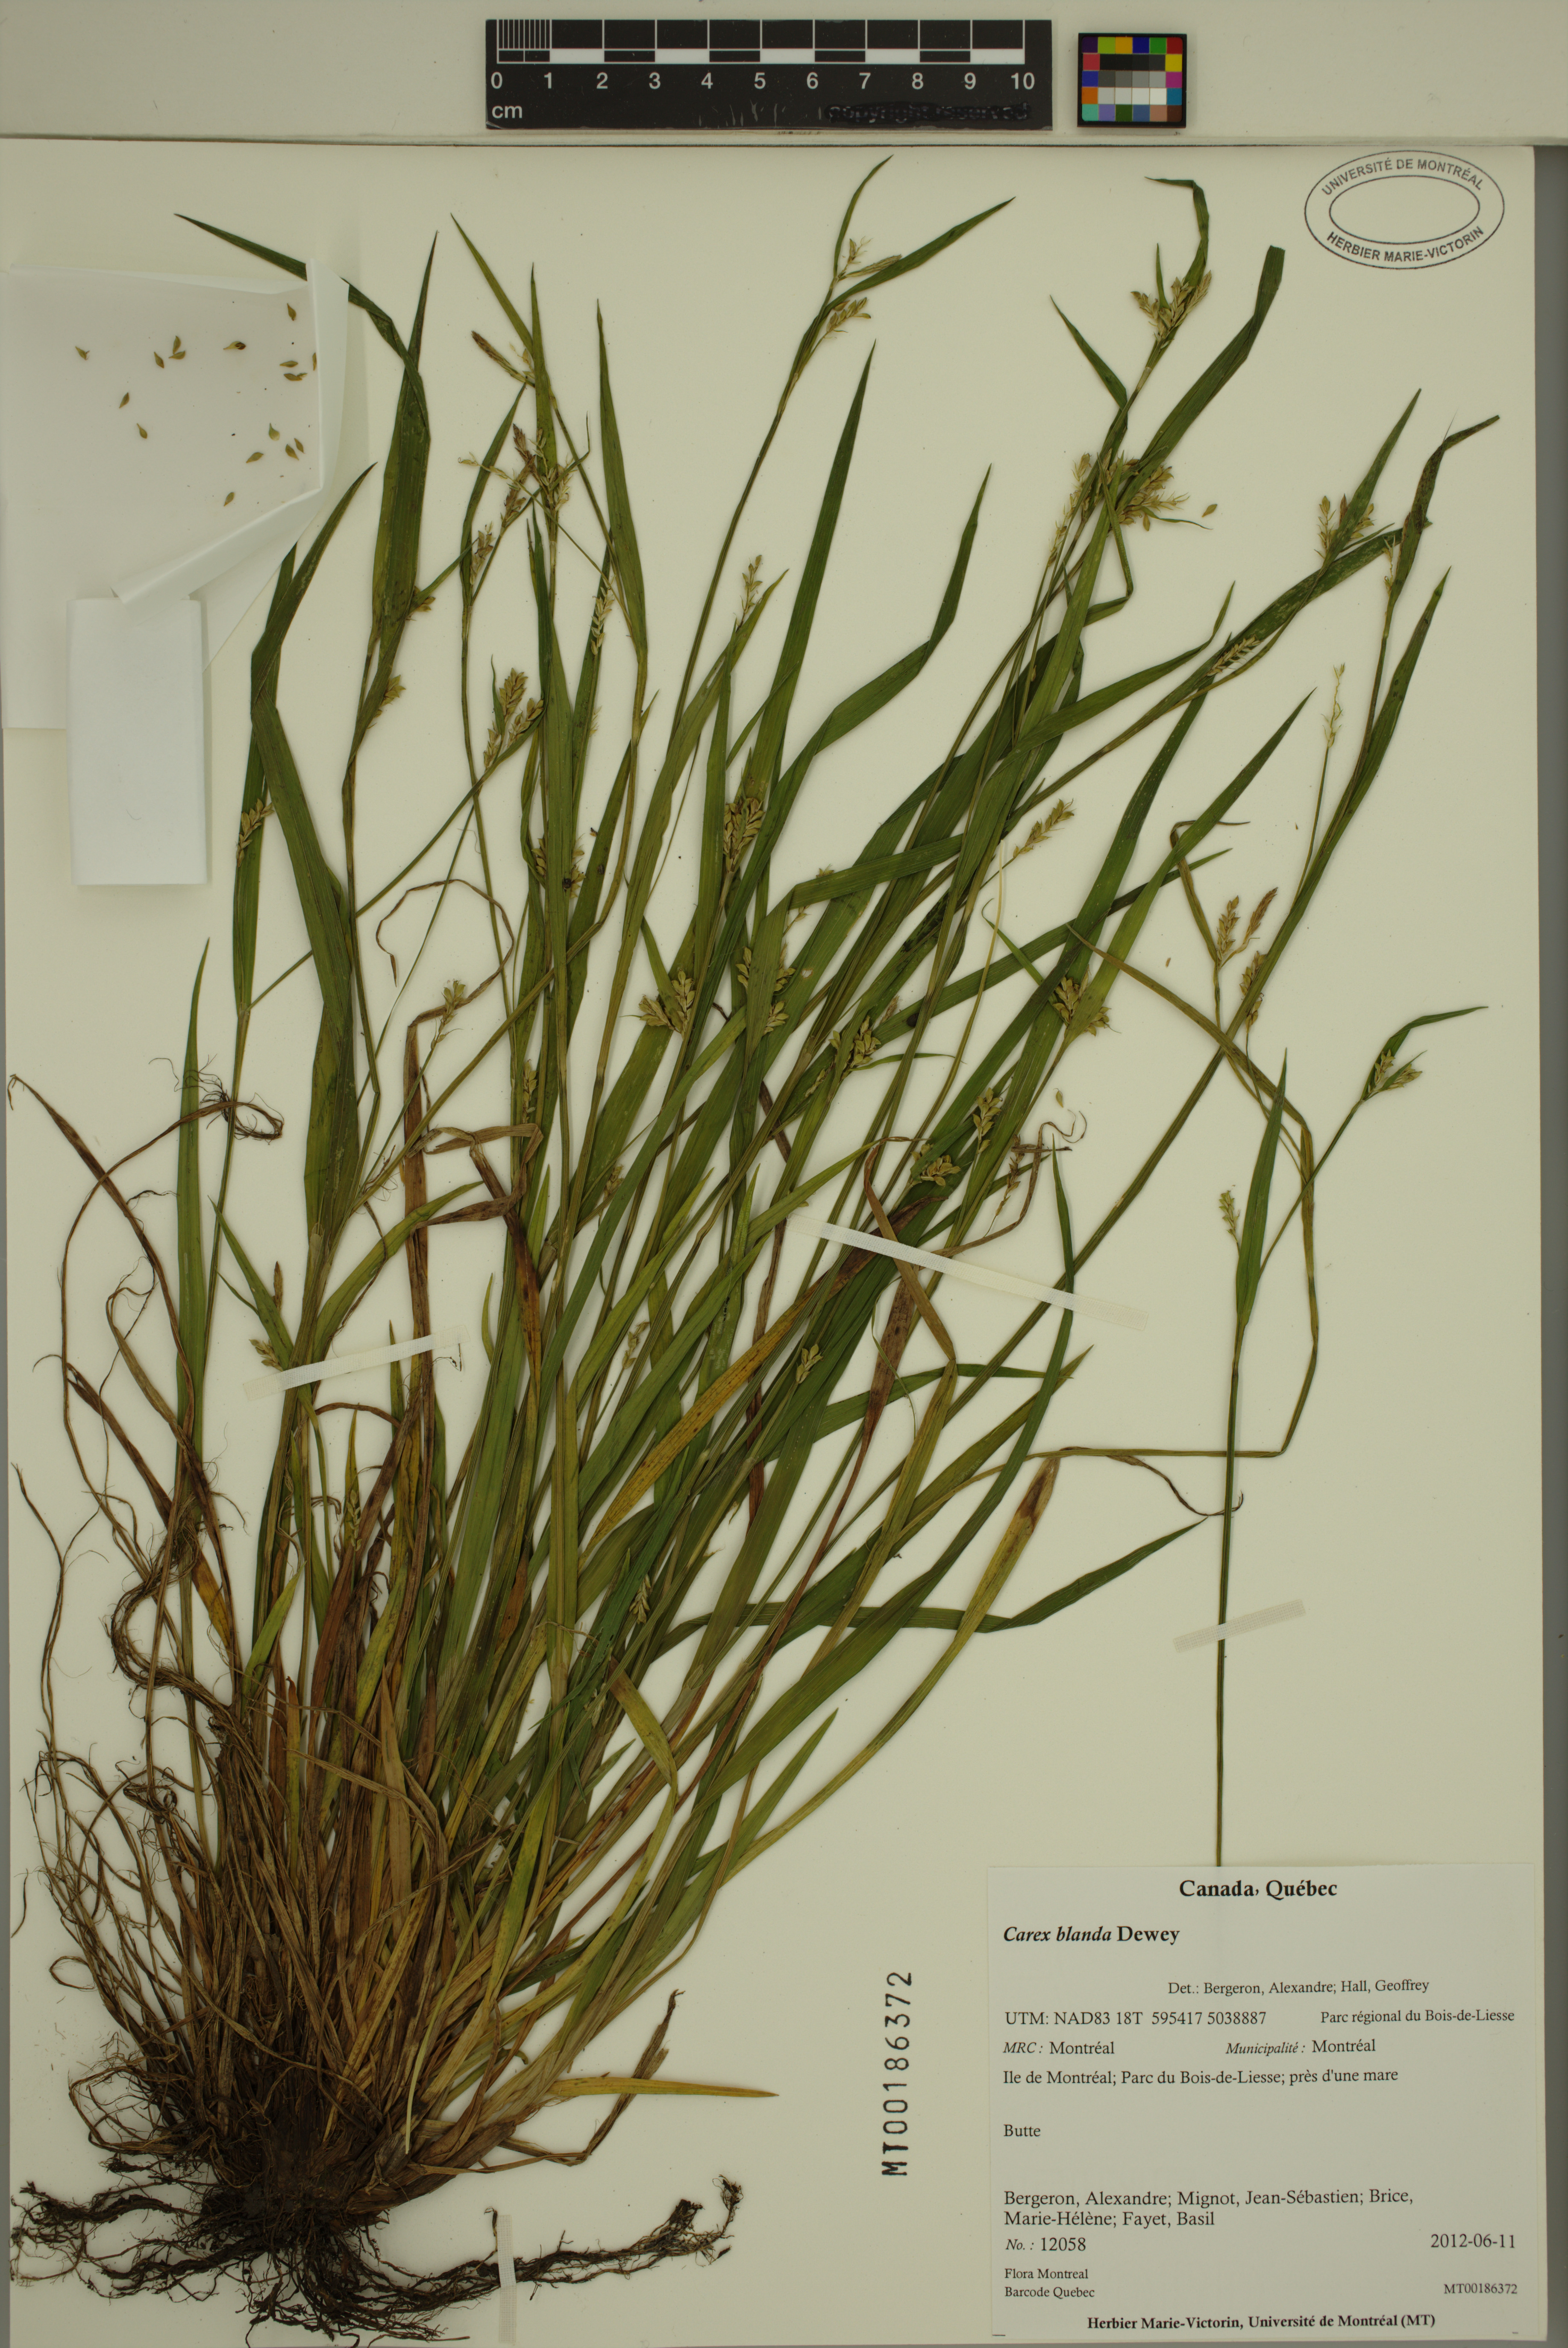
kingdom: Plantae
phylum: Tracheophyta
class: Liliopsida
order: Poales
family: Cyperaceae
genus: Carex
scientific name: Carex blanda
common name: Bland sedge
